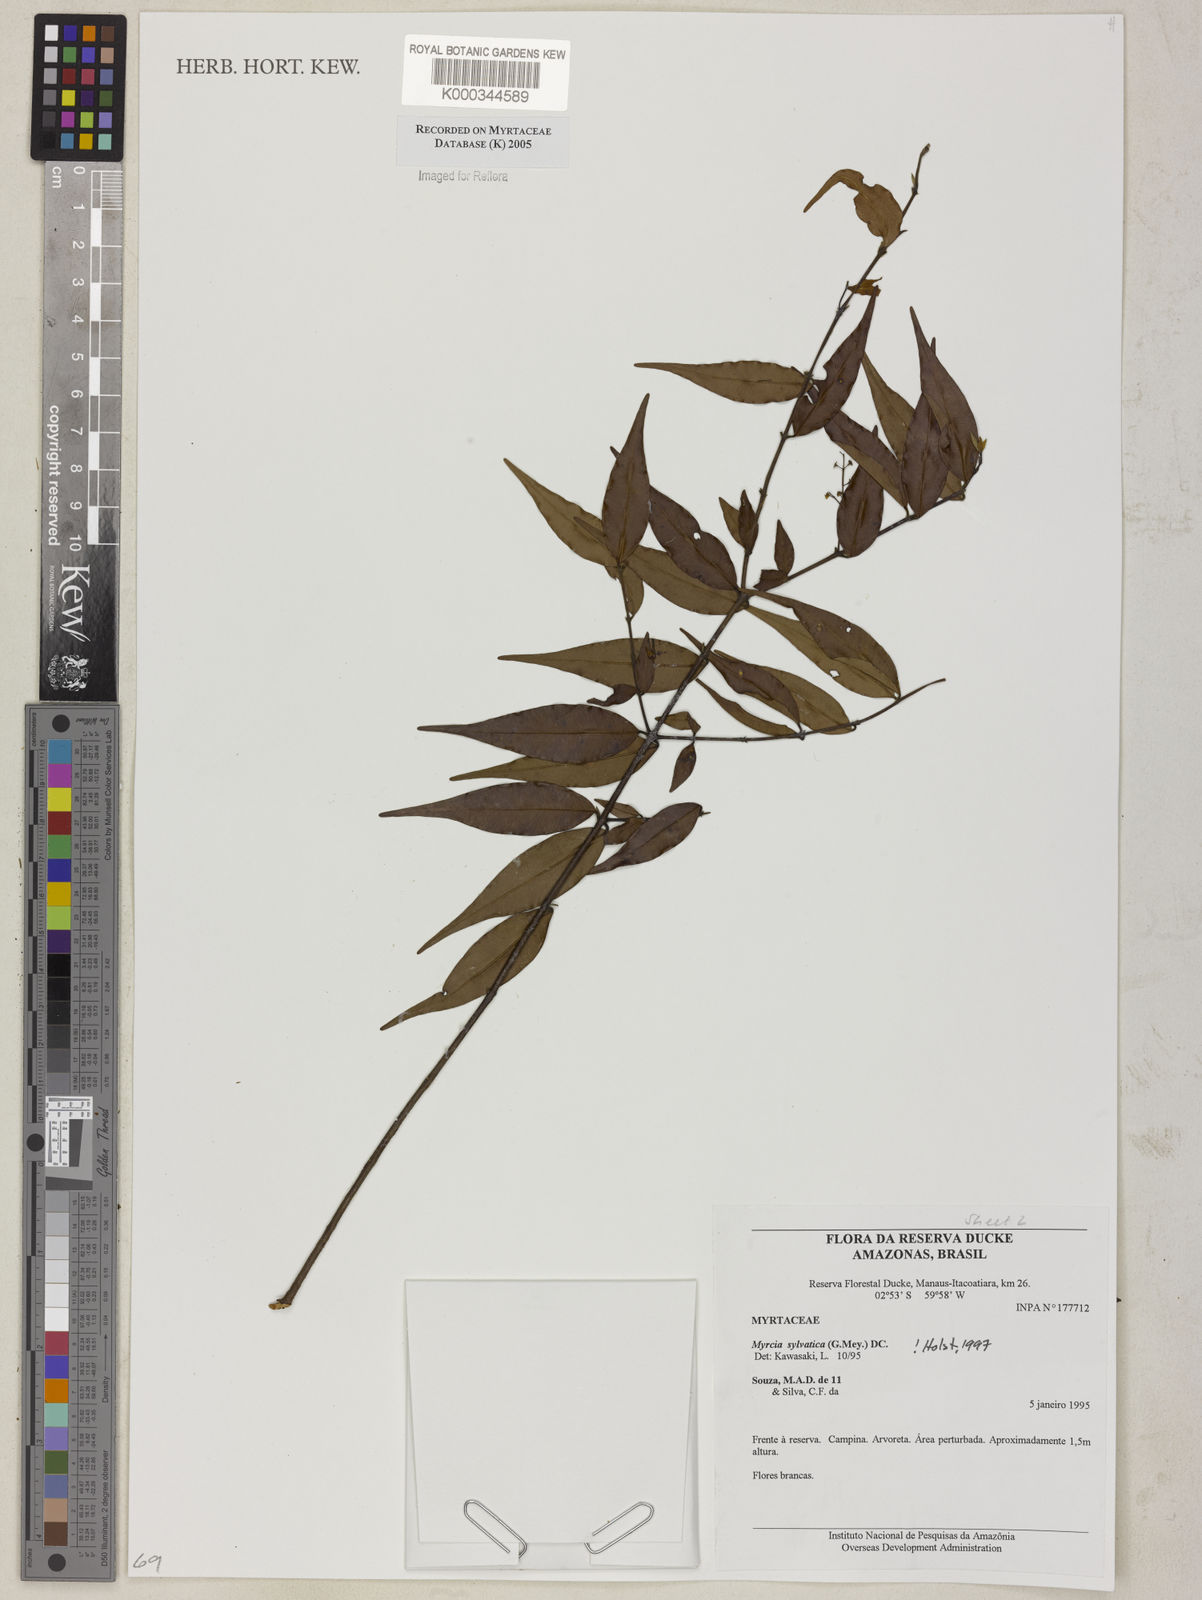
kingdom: Plantae
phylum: Tracheophyta
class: Magnoliopsida
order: Myrtales
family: Myrtaceae
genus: Myrcia
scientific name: Myrcia sylvatica
